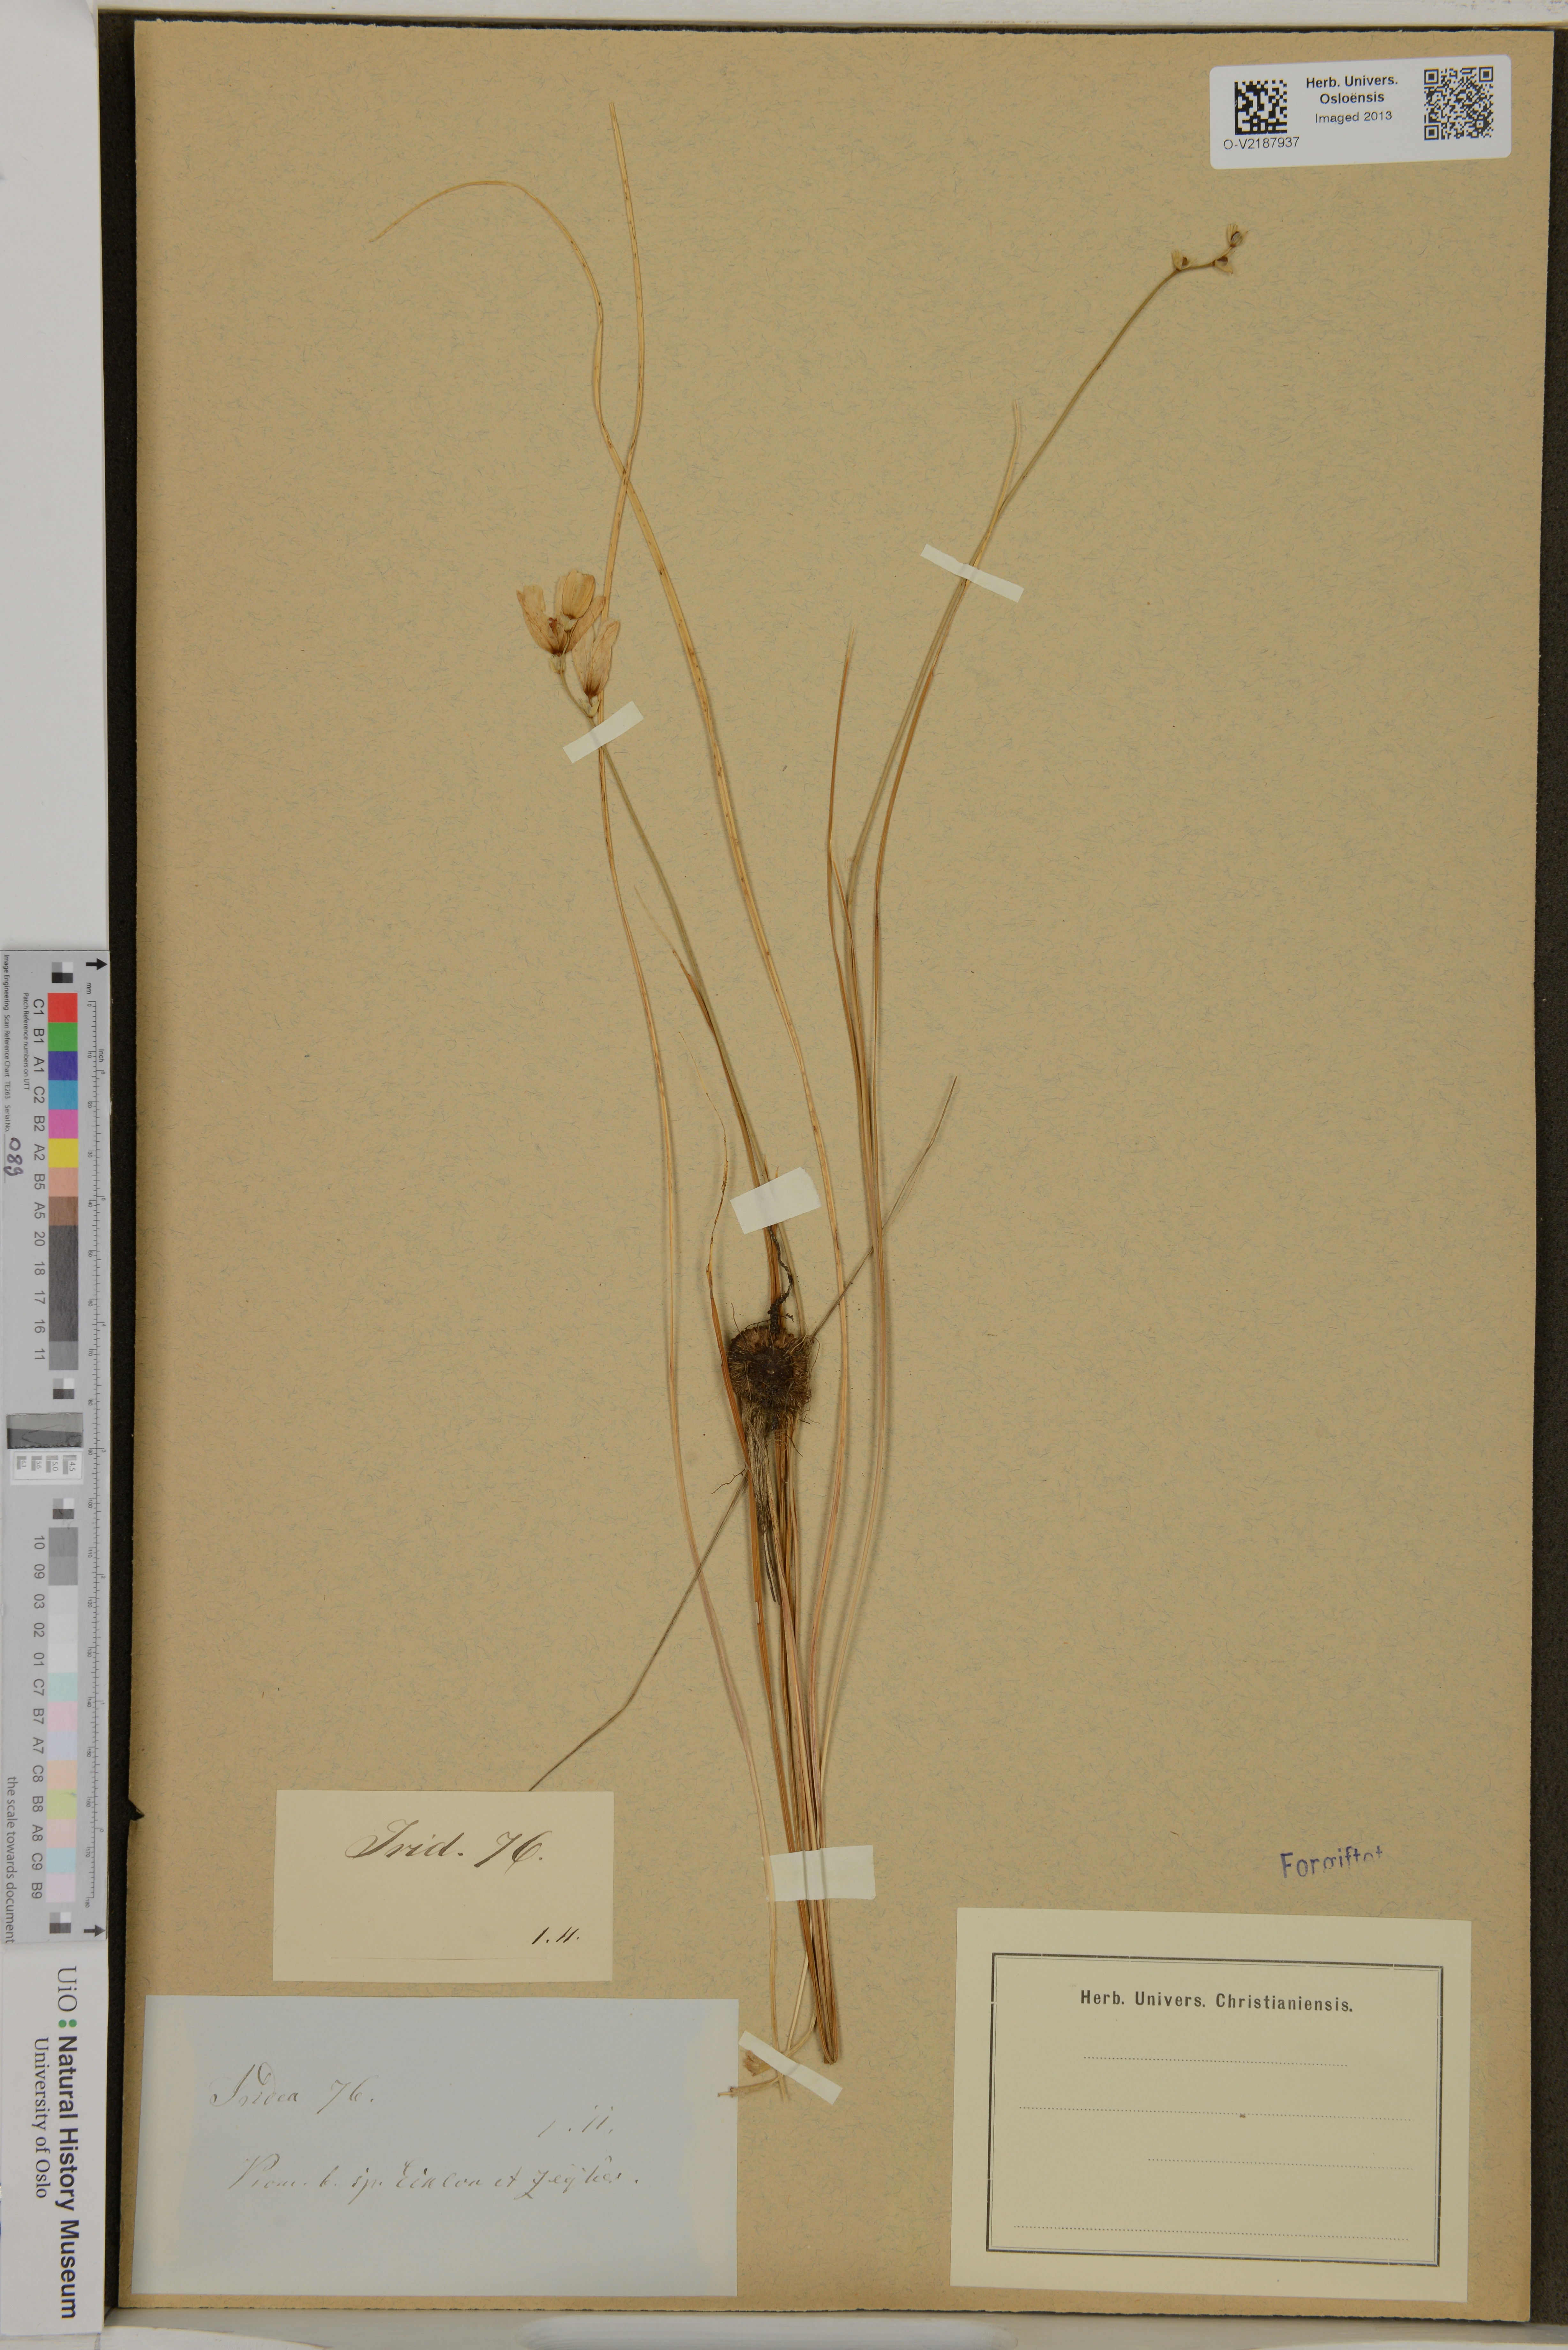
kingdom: Plantae
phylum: Tracheophyta
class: Liliopsida
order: Asparagales
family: Iridaceae
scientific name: Iridaceae
